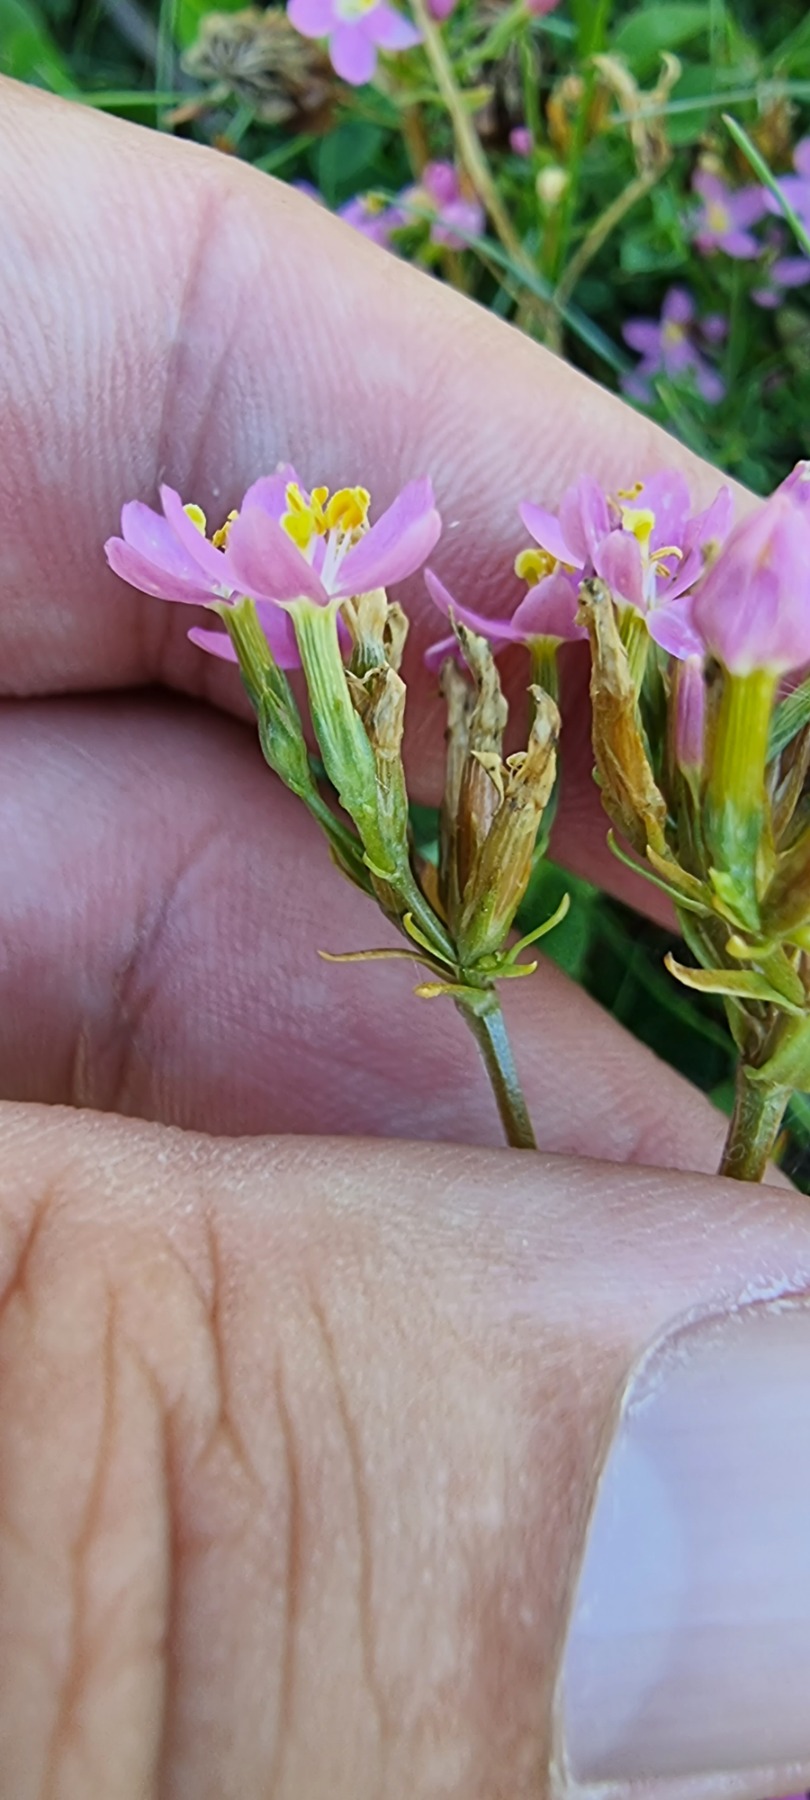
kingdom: Plantae
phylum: Tracheophyta
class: Magnoliopsida
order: Gentianales
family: Gentianaceae
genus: Centaurium
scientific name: Centaurium erythraea
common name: Mark-tusindgylden
